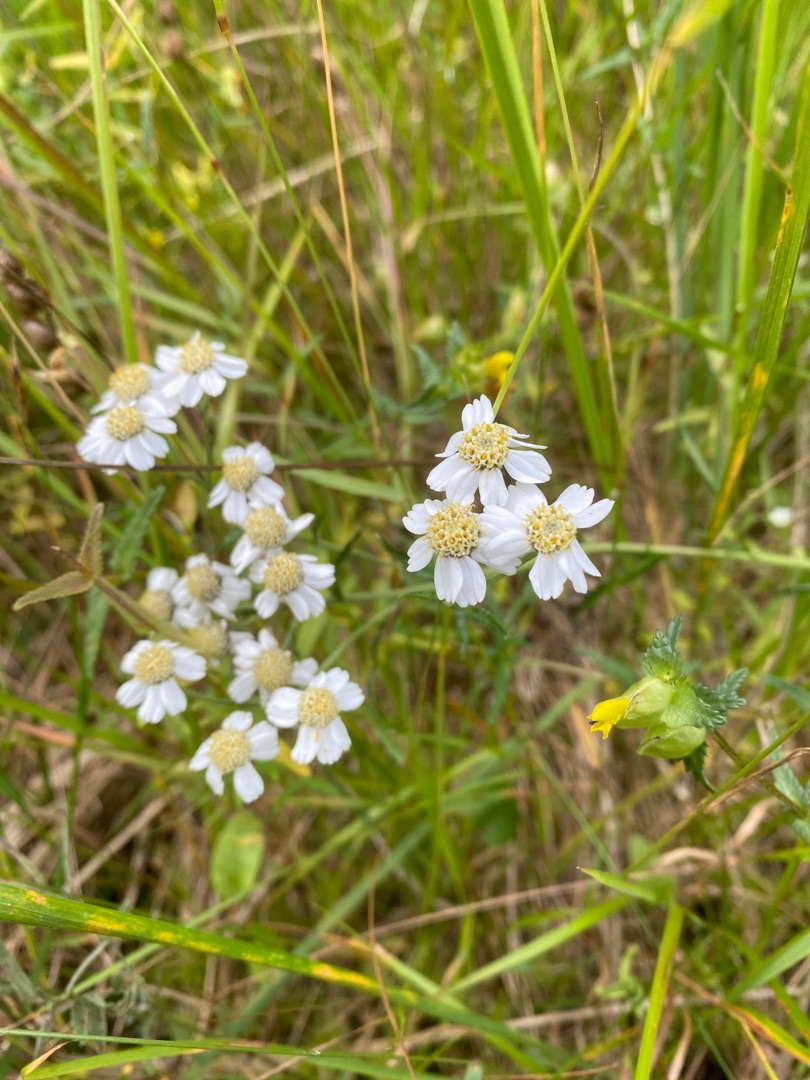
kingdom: Plantae
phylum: Tracheophyta
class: Magnoliopsida
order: Asterales
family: Asteraceae
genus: Achillea
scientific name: Achillea ptarmica
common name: Nyse-røllike
